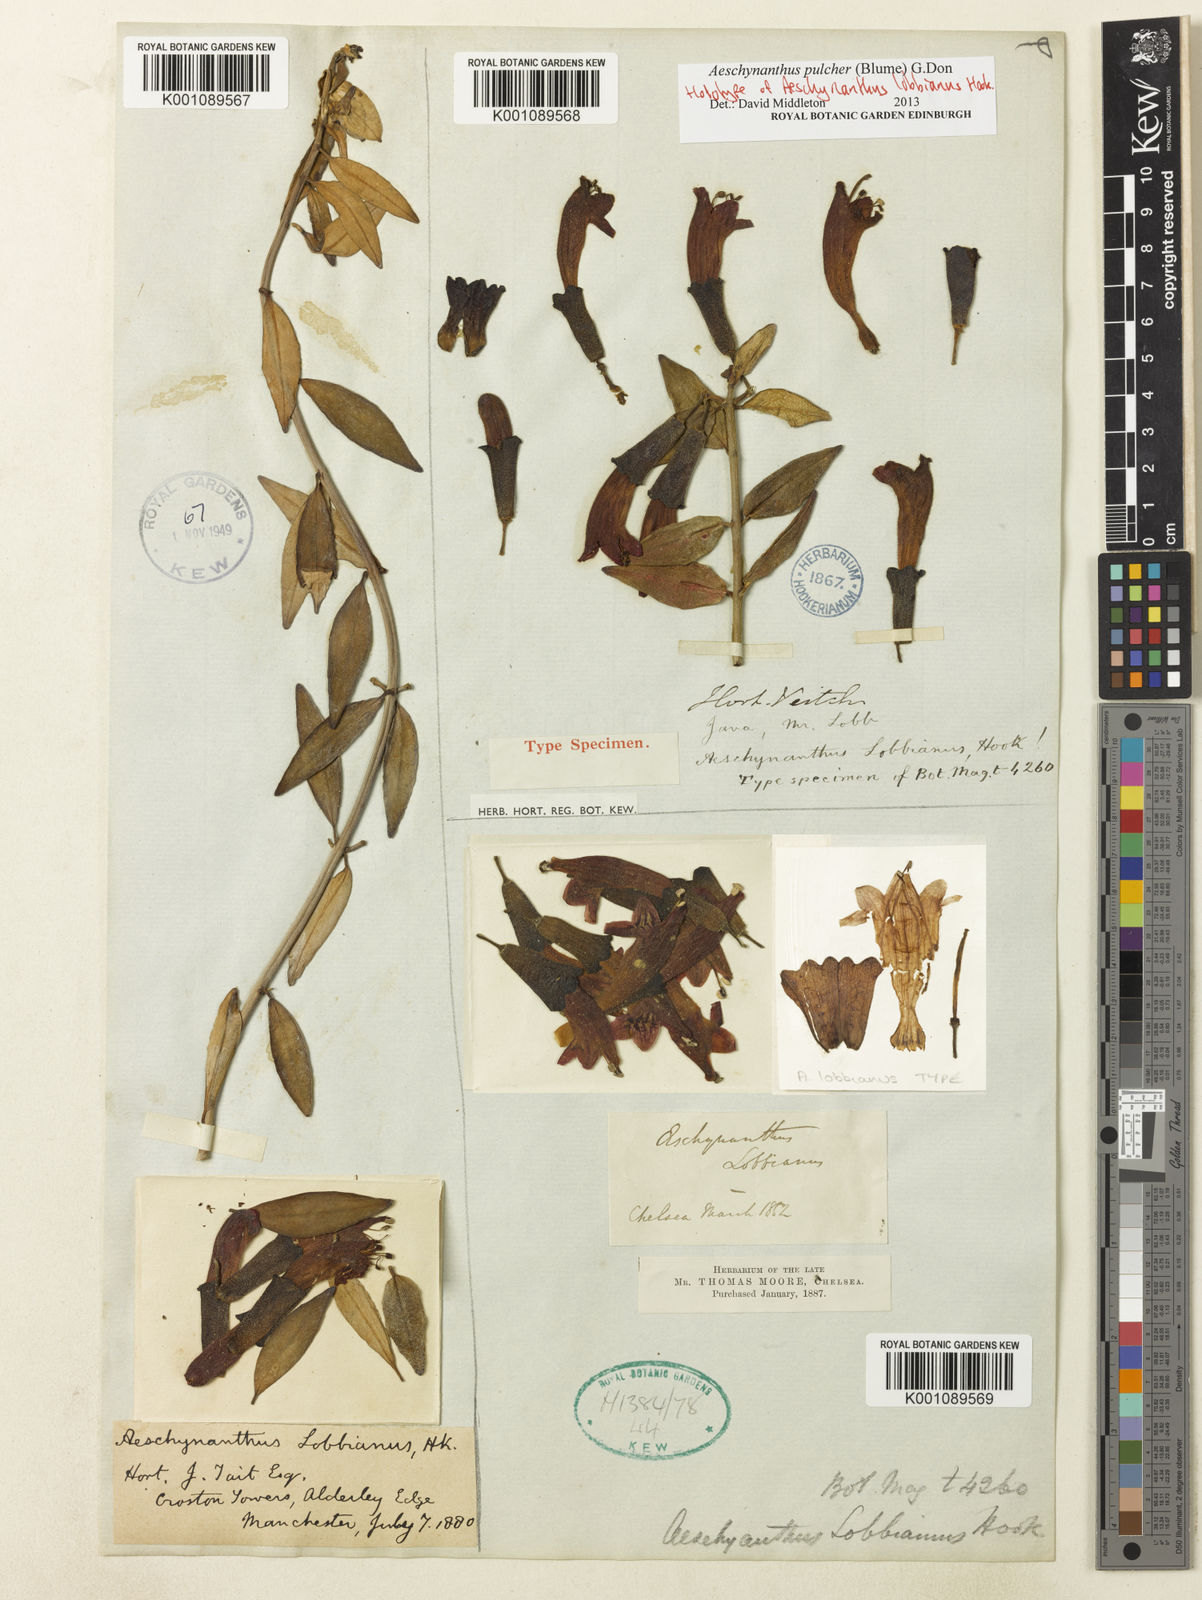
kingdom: Plantae
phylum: Tracheophyta
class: Magnoliopsida
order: Lamiales
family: Gesneriaceae
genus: Aeschynanthus
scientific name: Aeschynanthus pulcher
